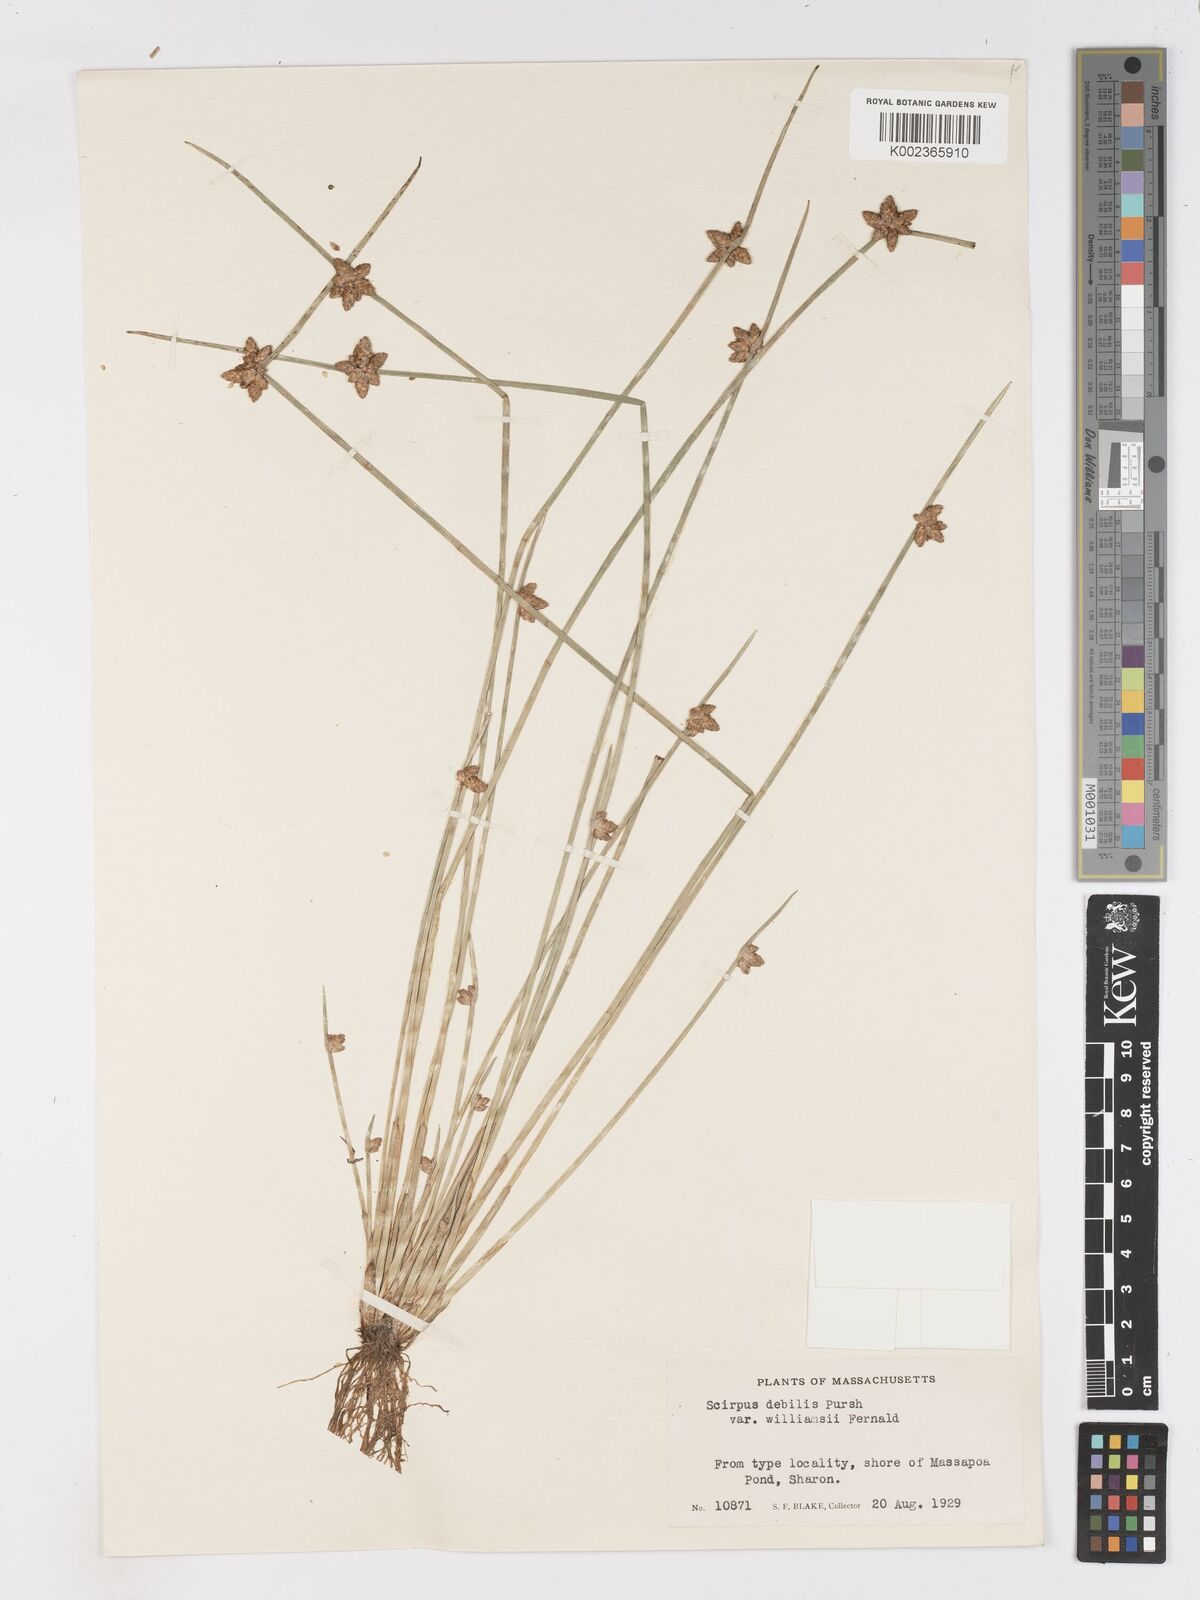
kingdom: Plantae
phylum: Tracheophyta
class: Liliopsida
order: Poales
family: Cyperaceae
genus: Schoenoplectiella
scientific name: Schoenoplectiella purshiana
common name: Weak-stalked bulrush
